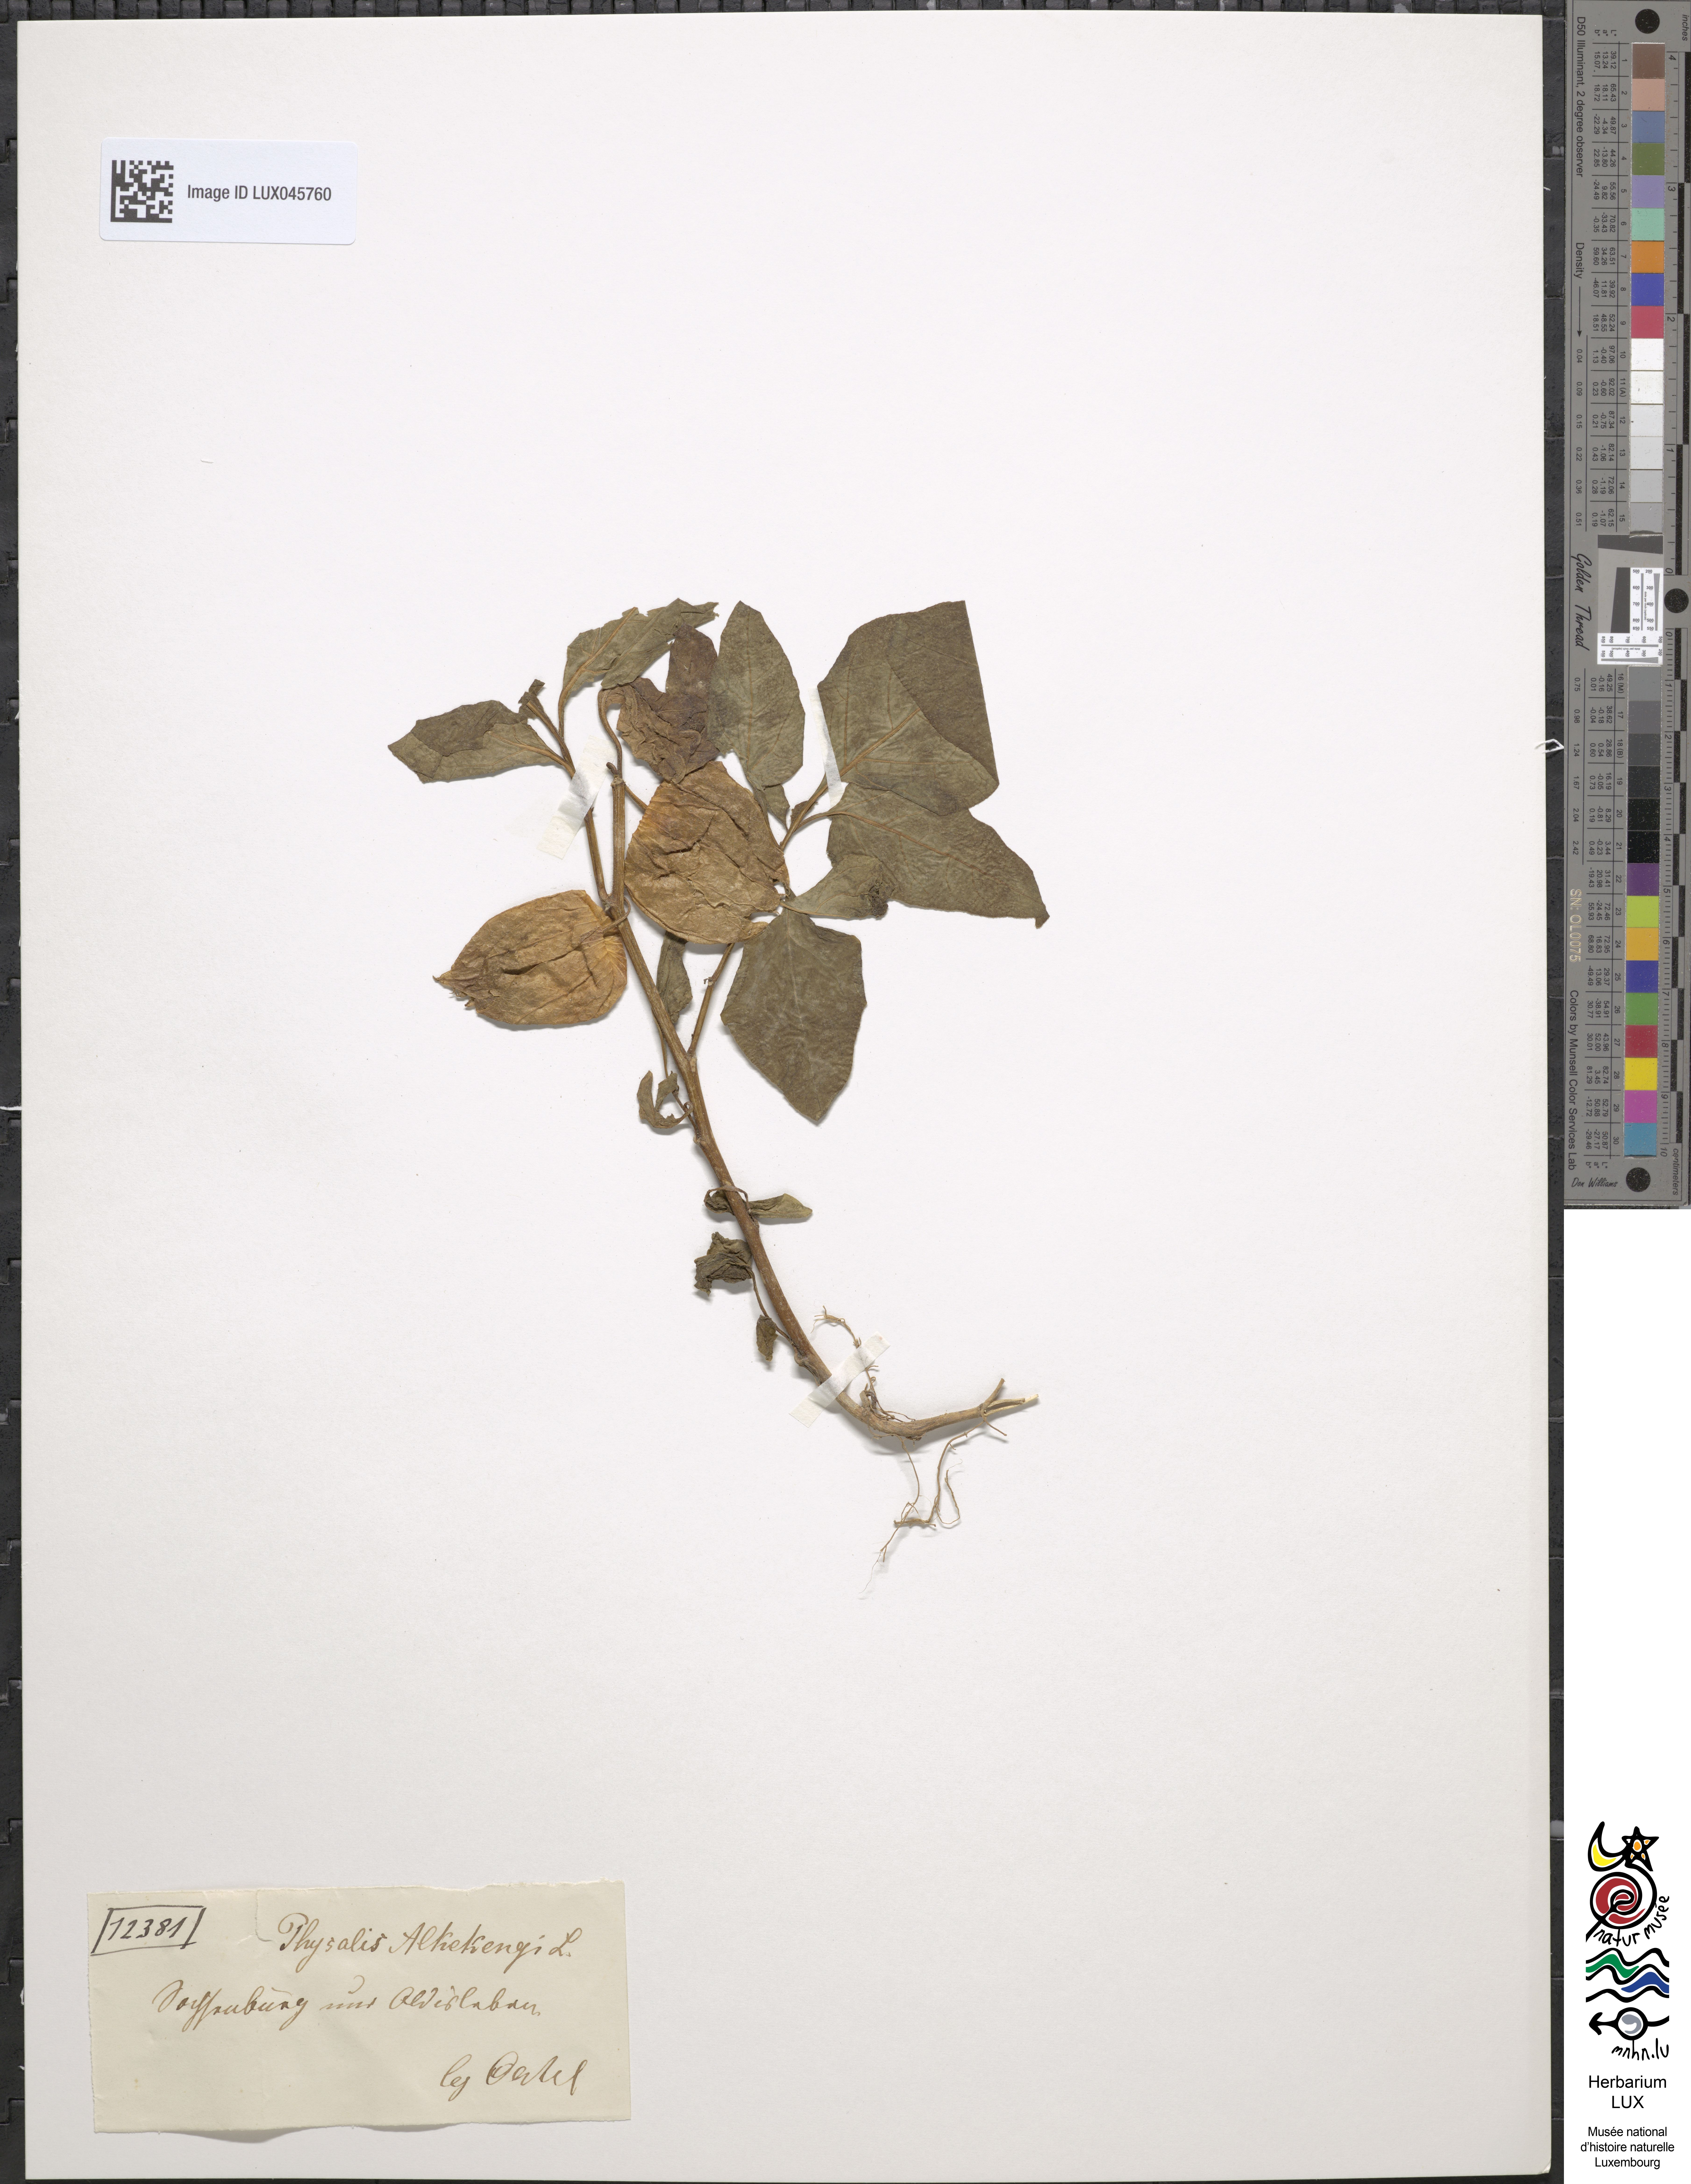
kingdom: Plantae
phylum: Tracheophyta
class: Magnoliopsida
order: Solanales
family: Solanaceae
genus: Alkekengi
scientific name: Alkekengi officinarum
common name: Japanese-lantern
